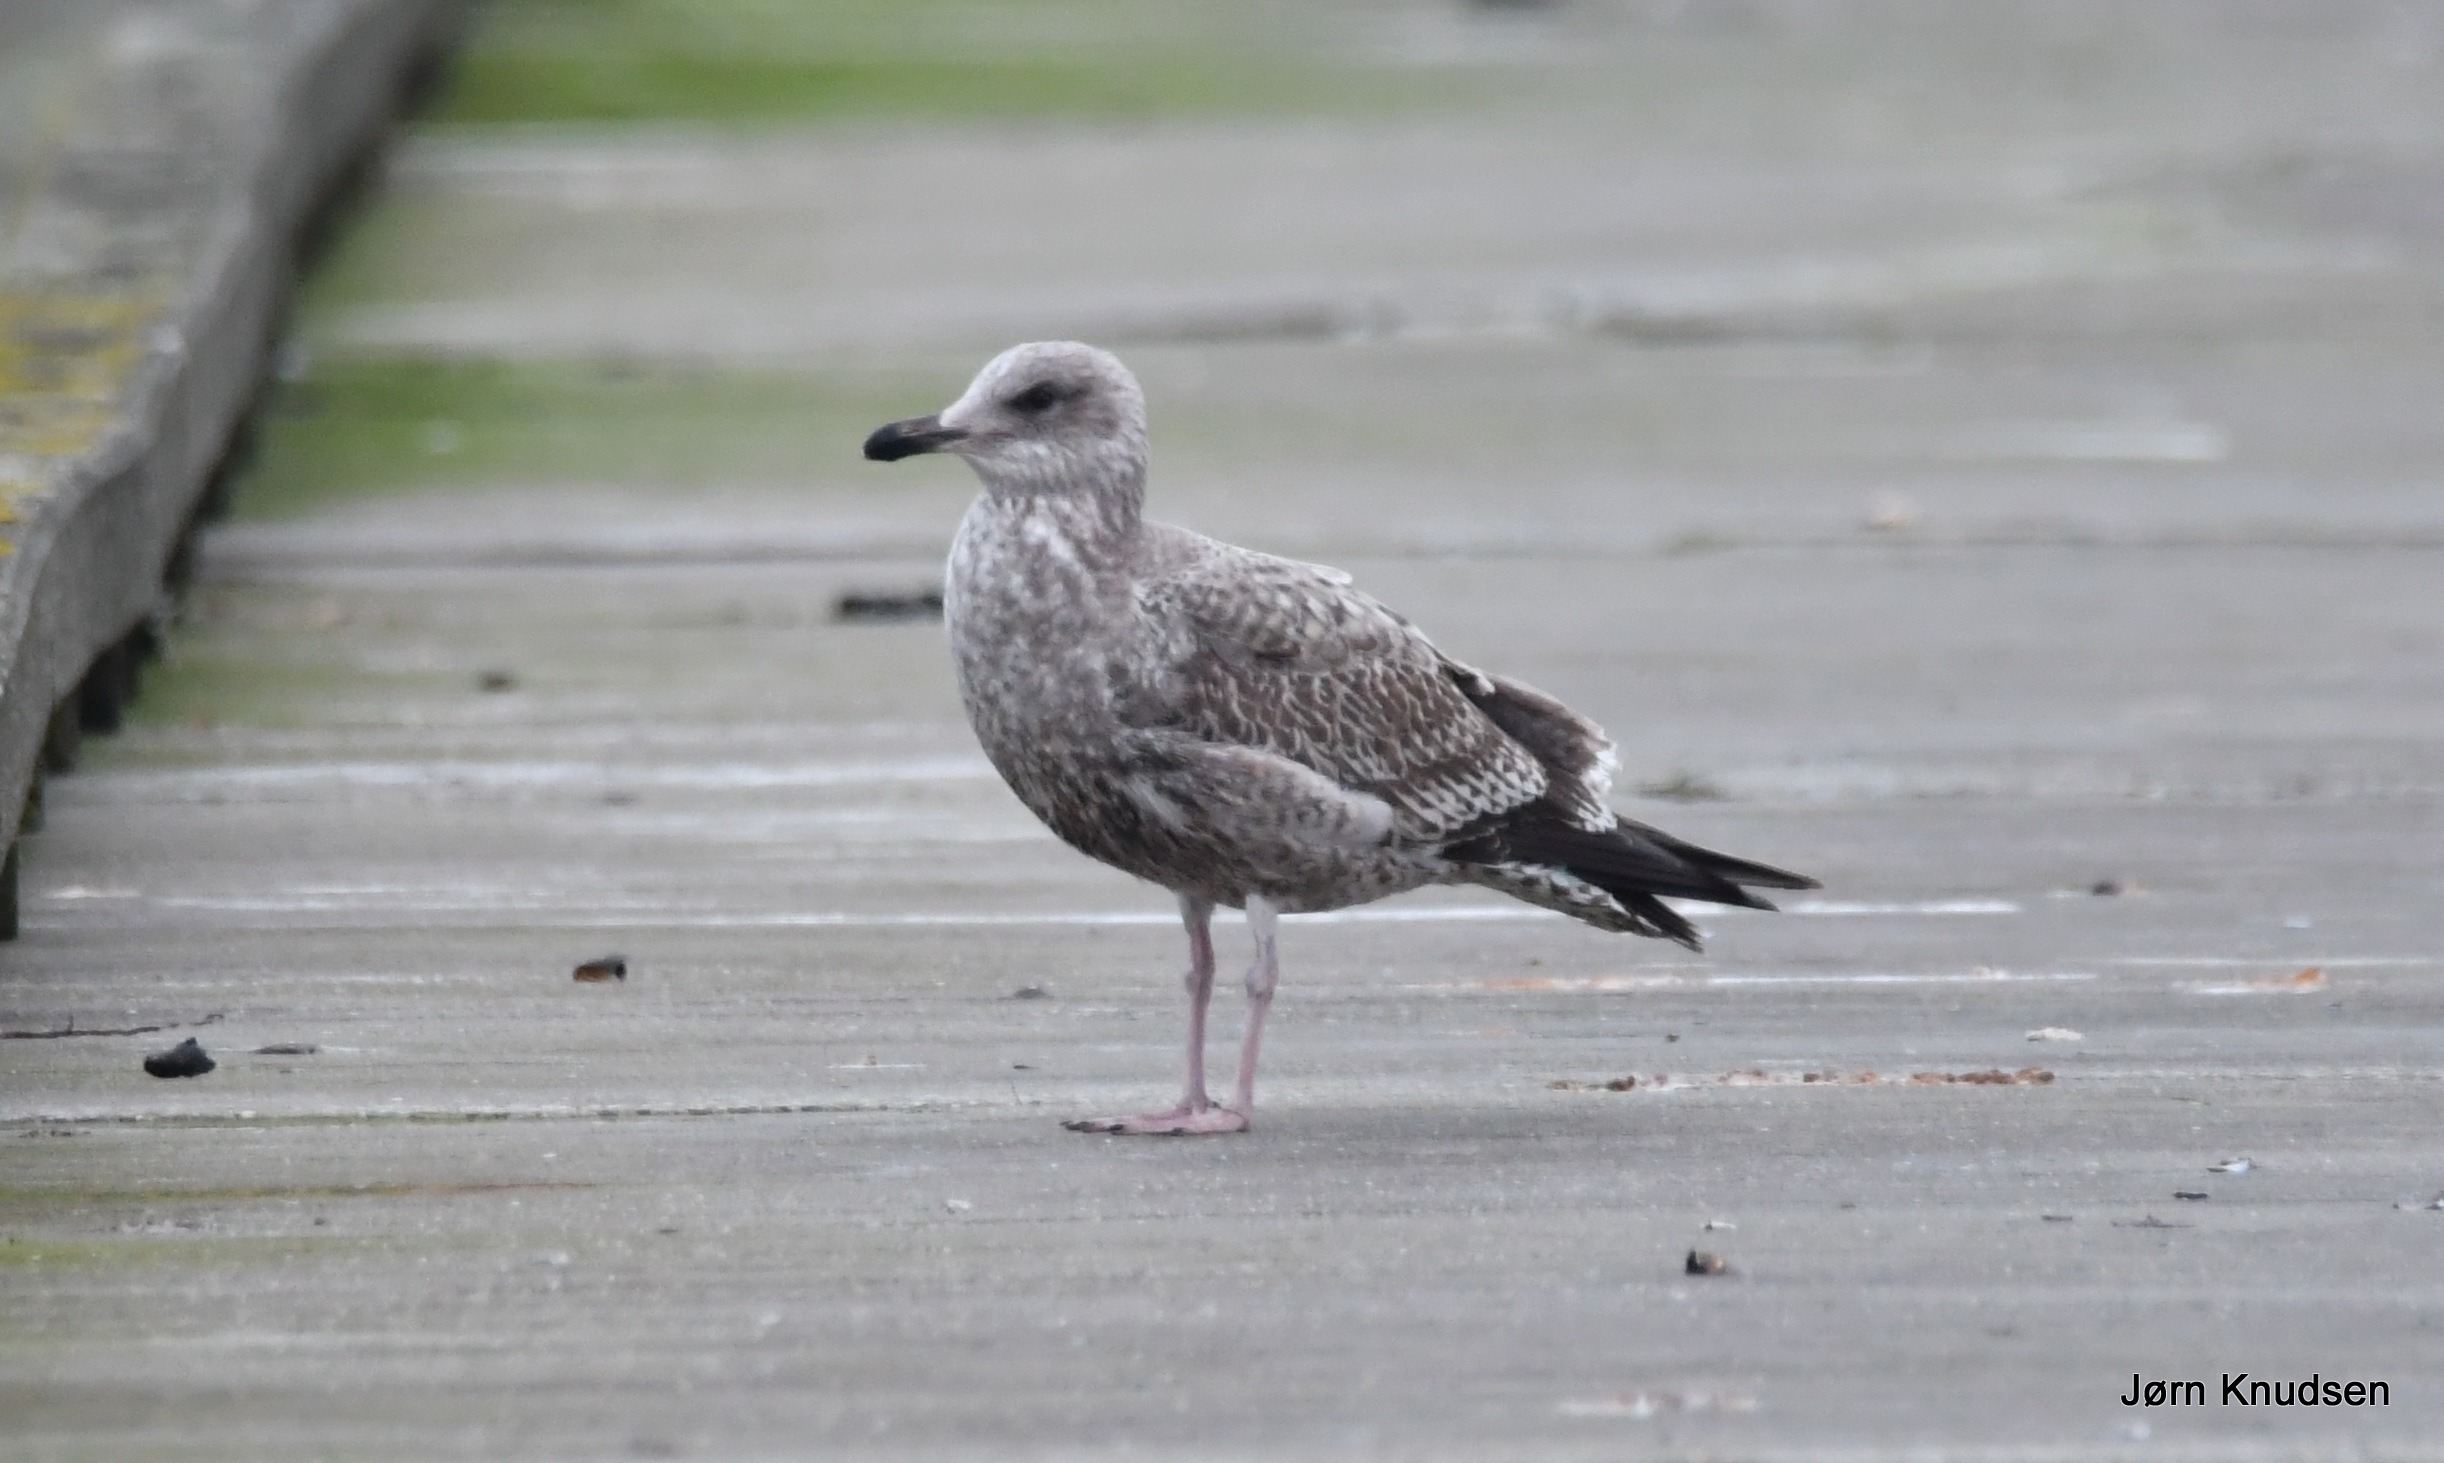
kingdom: Animalia
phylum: Chordata
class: Aves
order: Charadriiformes
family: Laridae
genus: Larus
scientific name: Larus argentatus
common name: Sølvmåge
